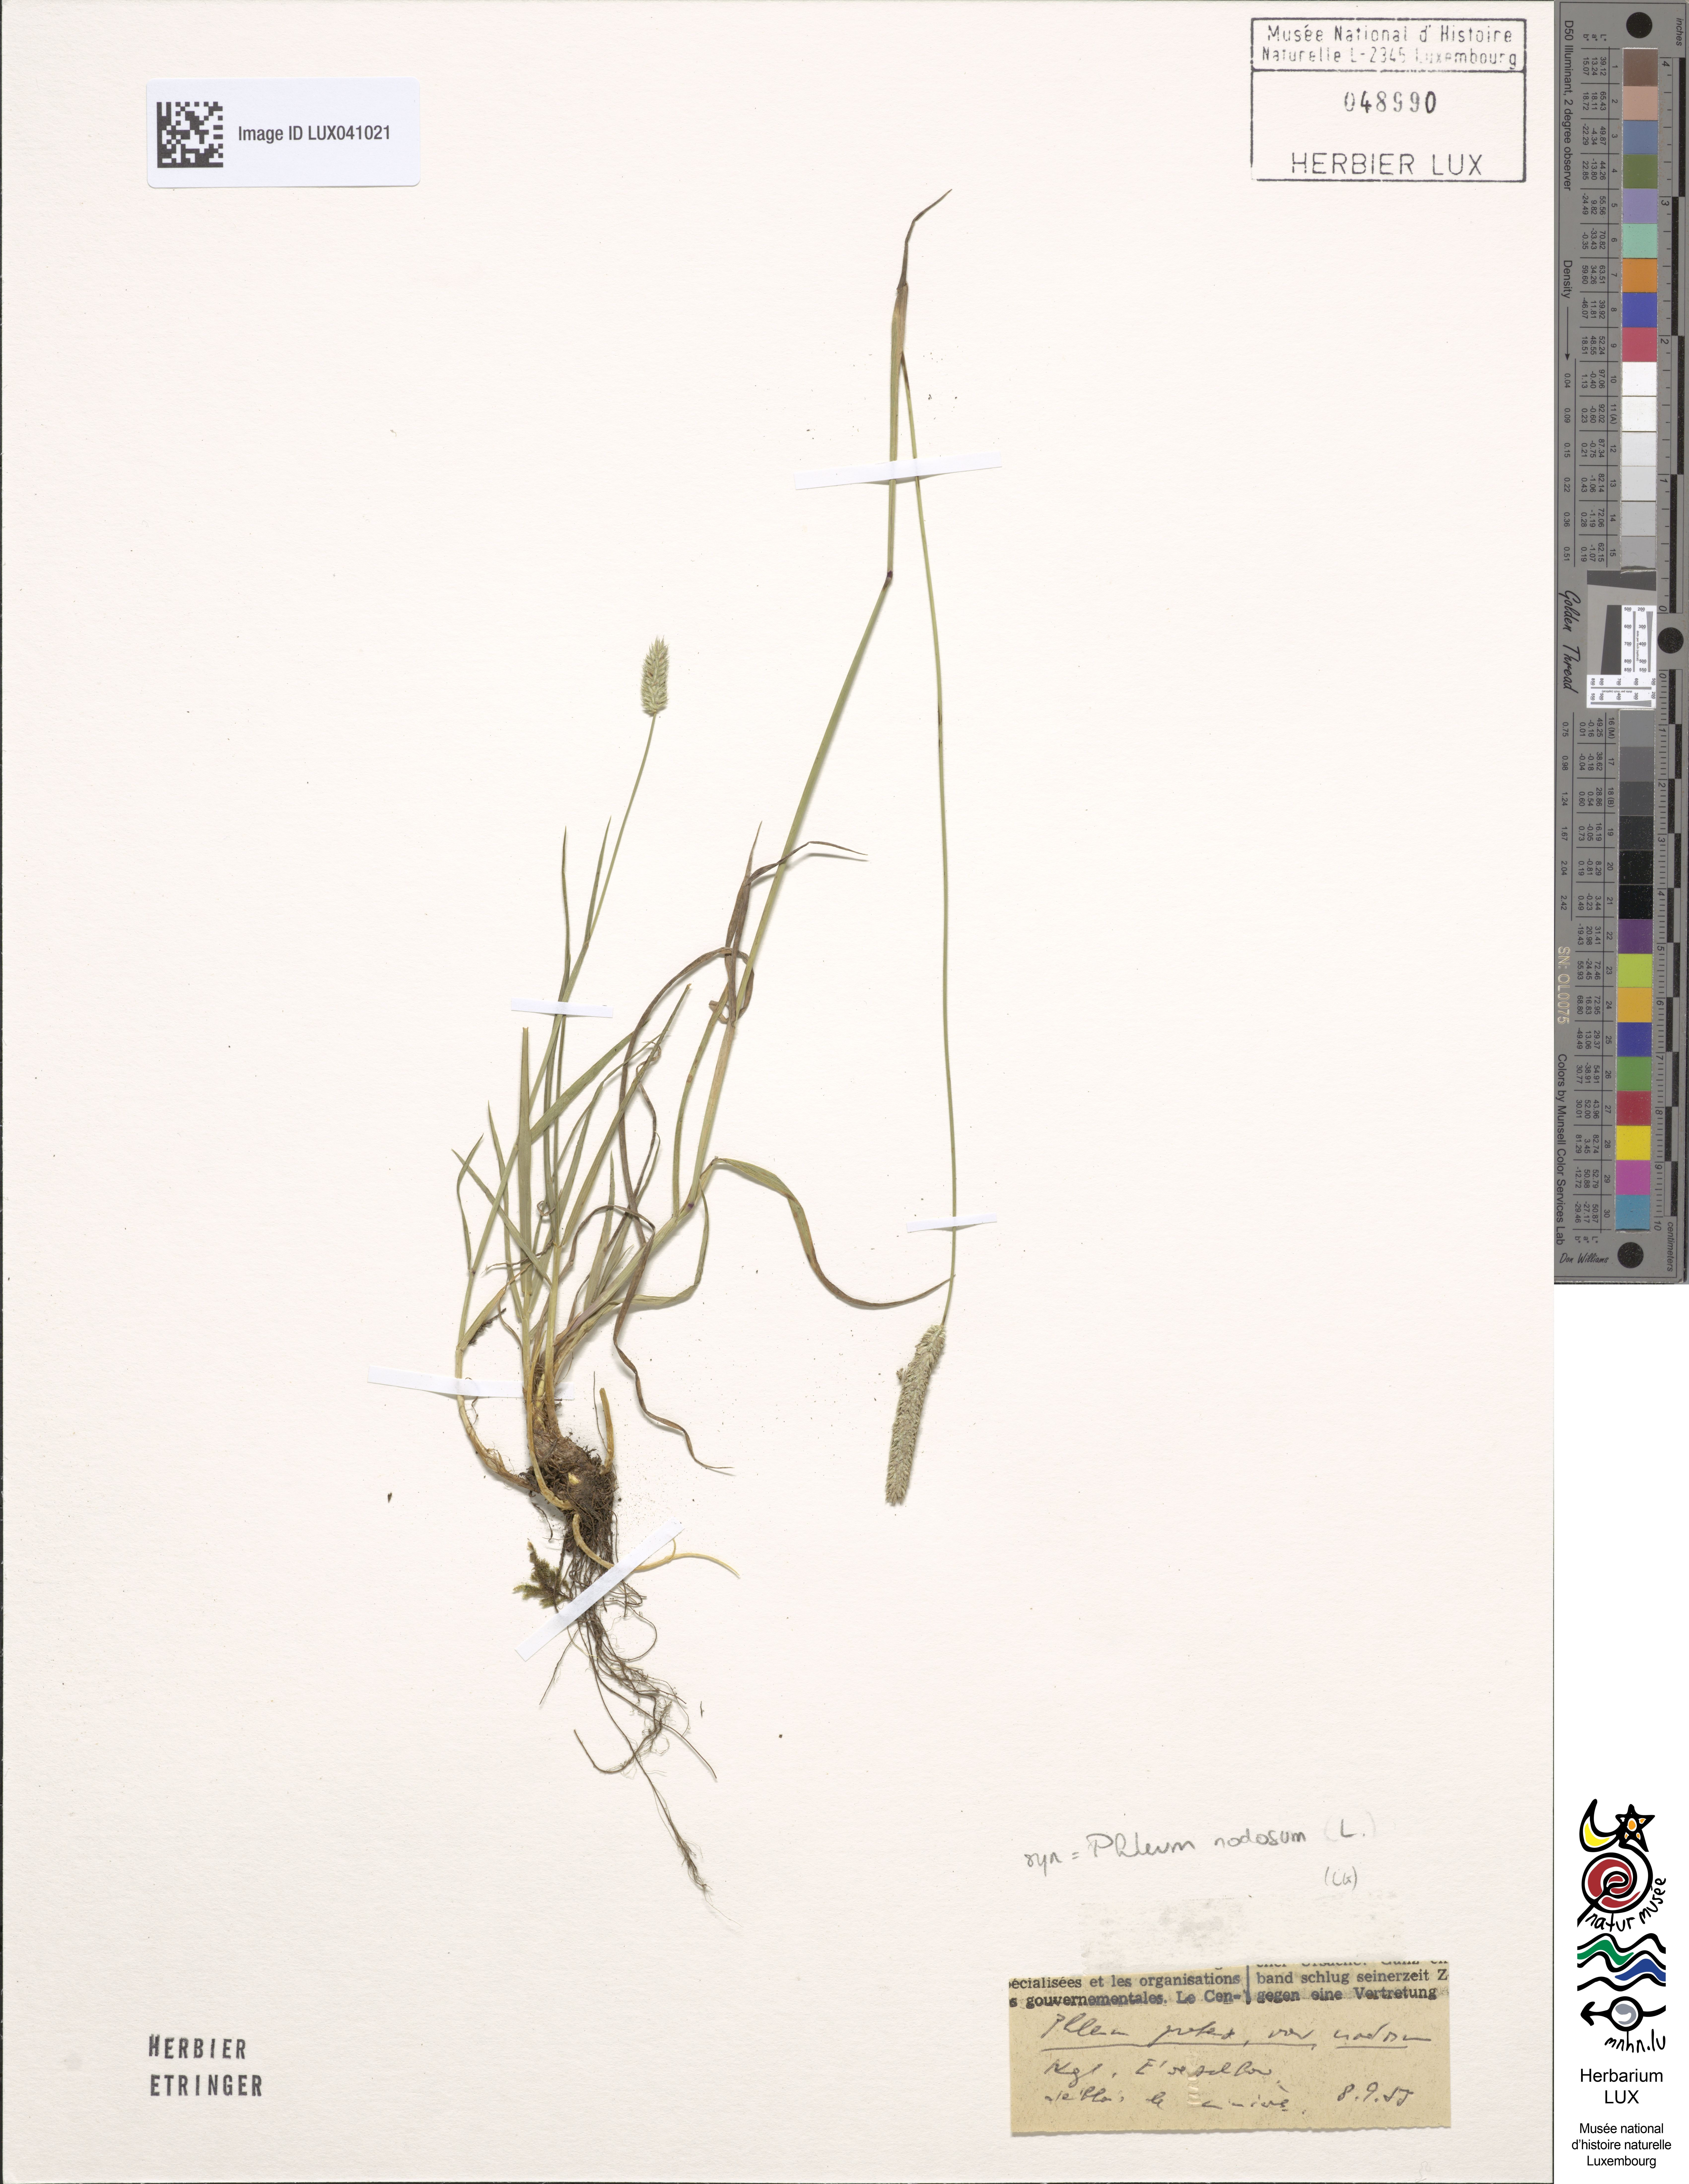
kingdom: Plantae
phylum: Tracheophyta
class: Liliopsida
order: Poales
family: Poaceae
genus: Phleum
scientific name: Phleum pratense
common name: Timothy grass
